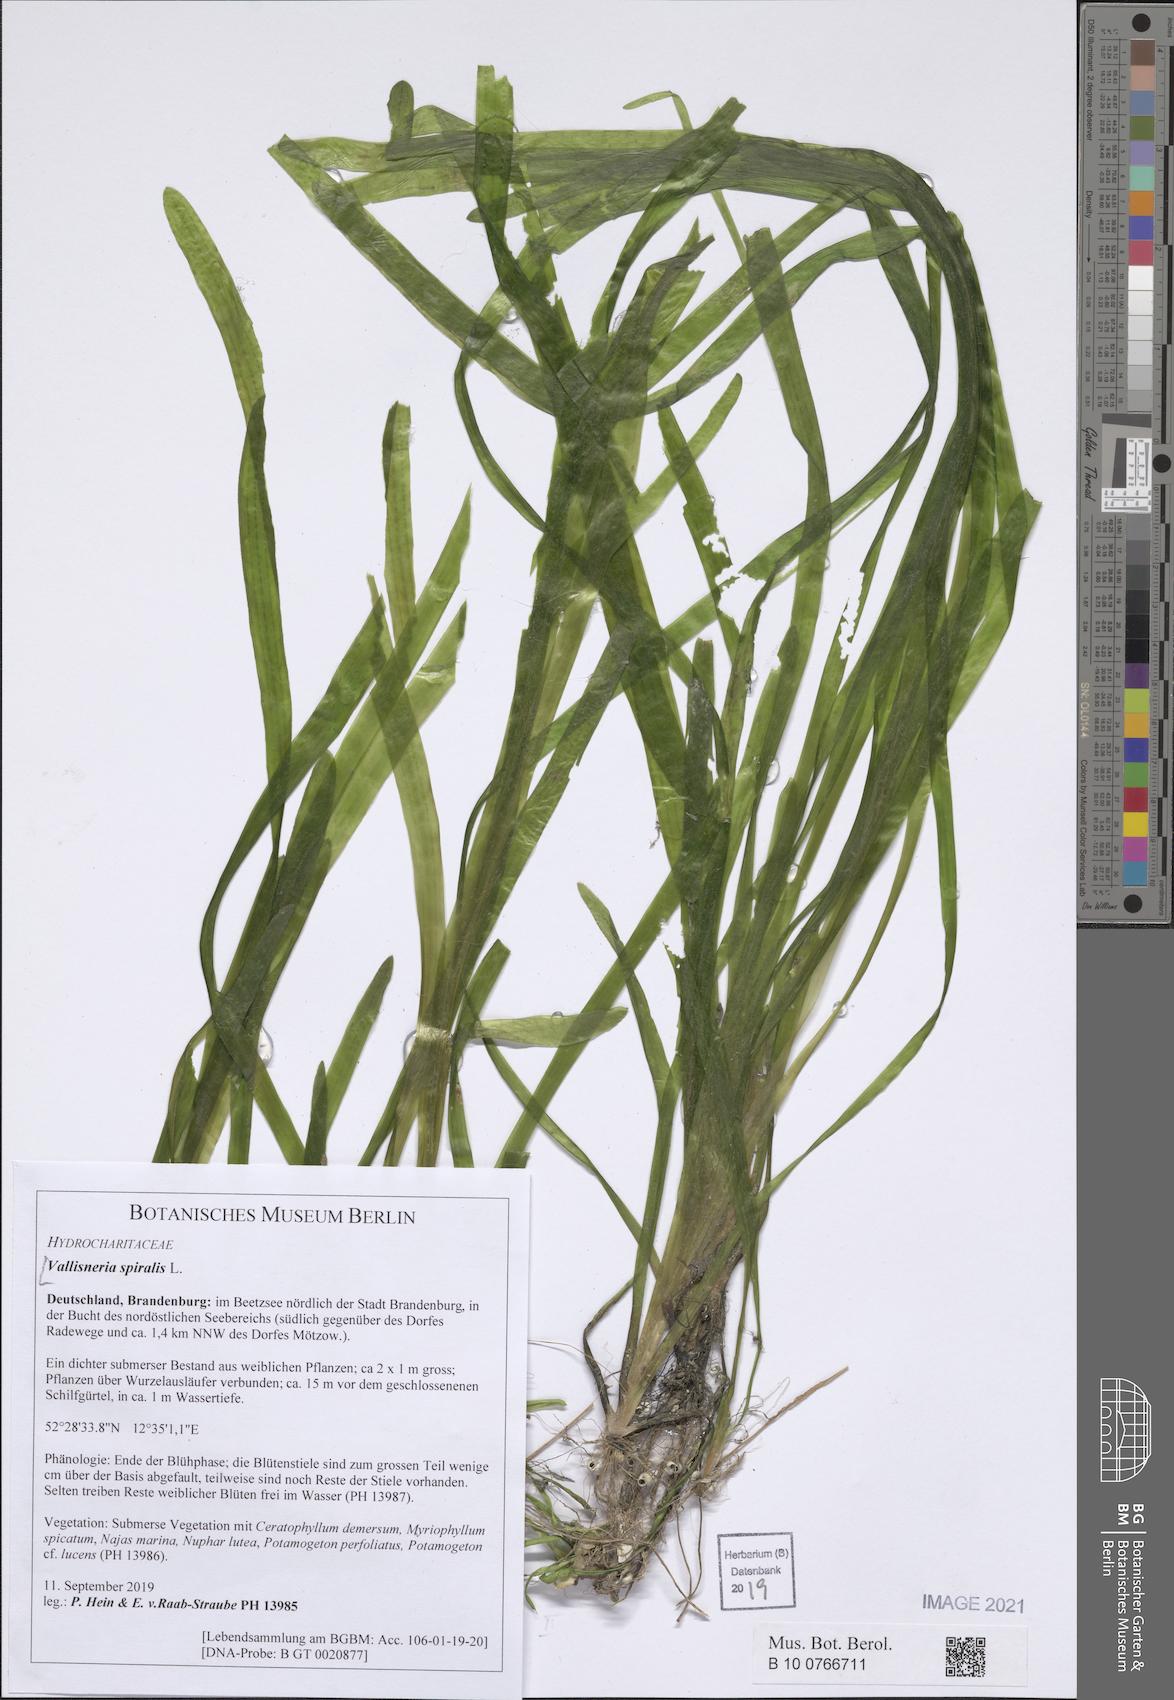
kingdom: Plantae
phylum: Tracheophyta
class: Liliopsida
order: Alismatales
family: Hydrocharitaceae
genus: Vallisneria
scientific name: Vallisneria spiralis
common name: Tapegrass
